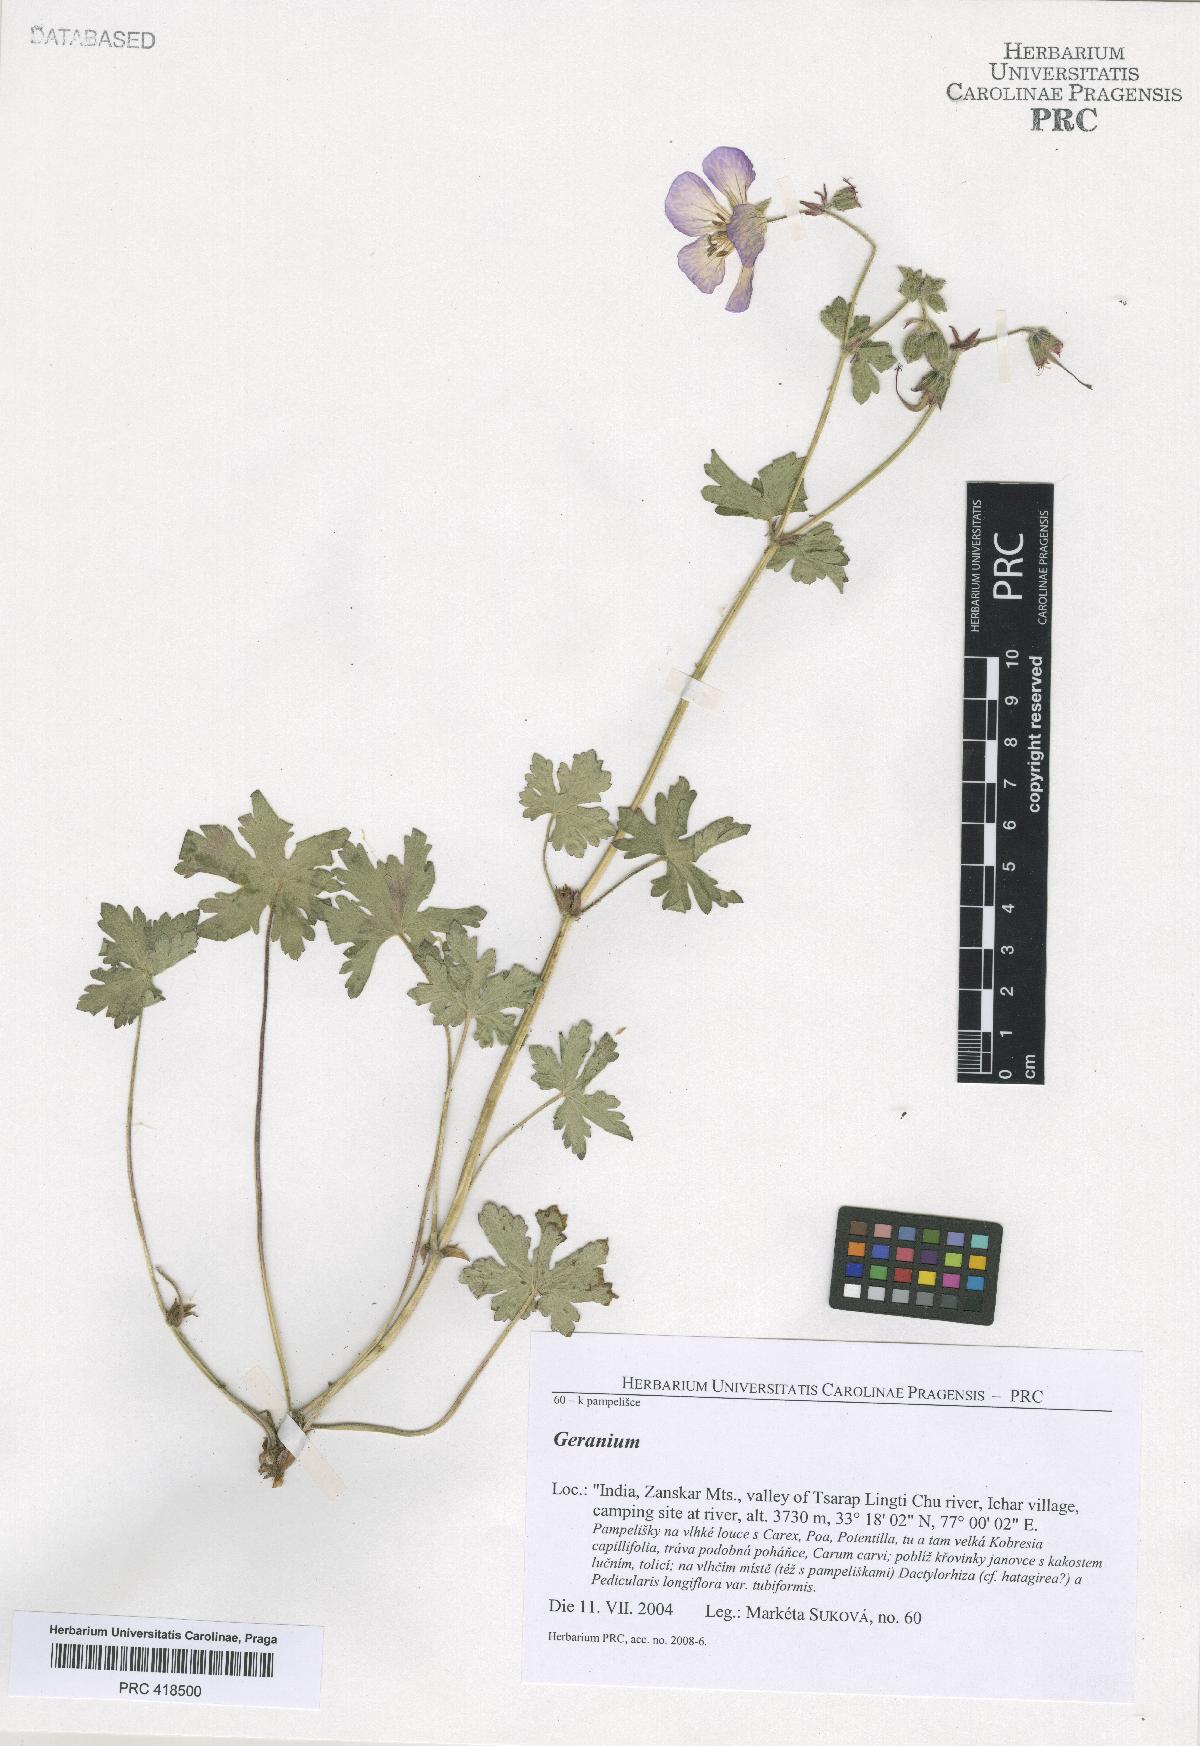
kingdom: Plantae
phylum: Tracheophyta
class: Magnoliopsida
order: Geraniales
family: Geraniaceae
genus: Geranium
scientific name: Geranium himalayense
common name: Himalayan crane's-bill
